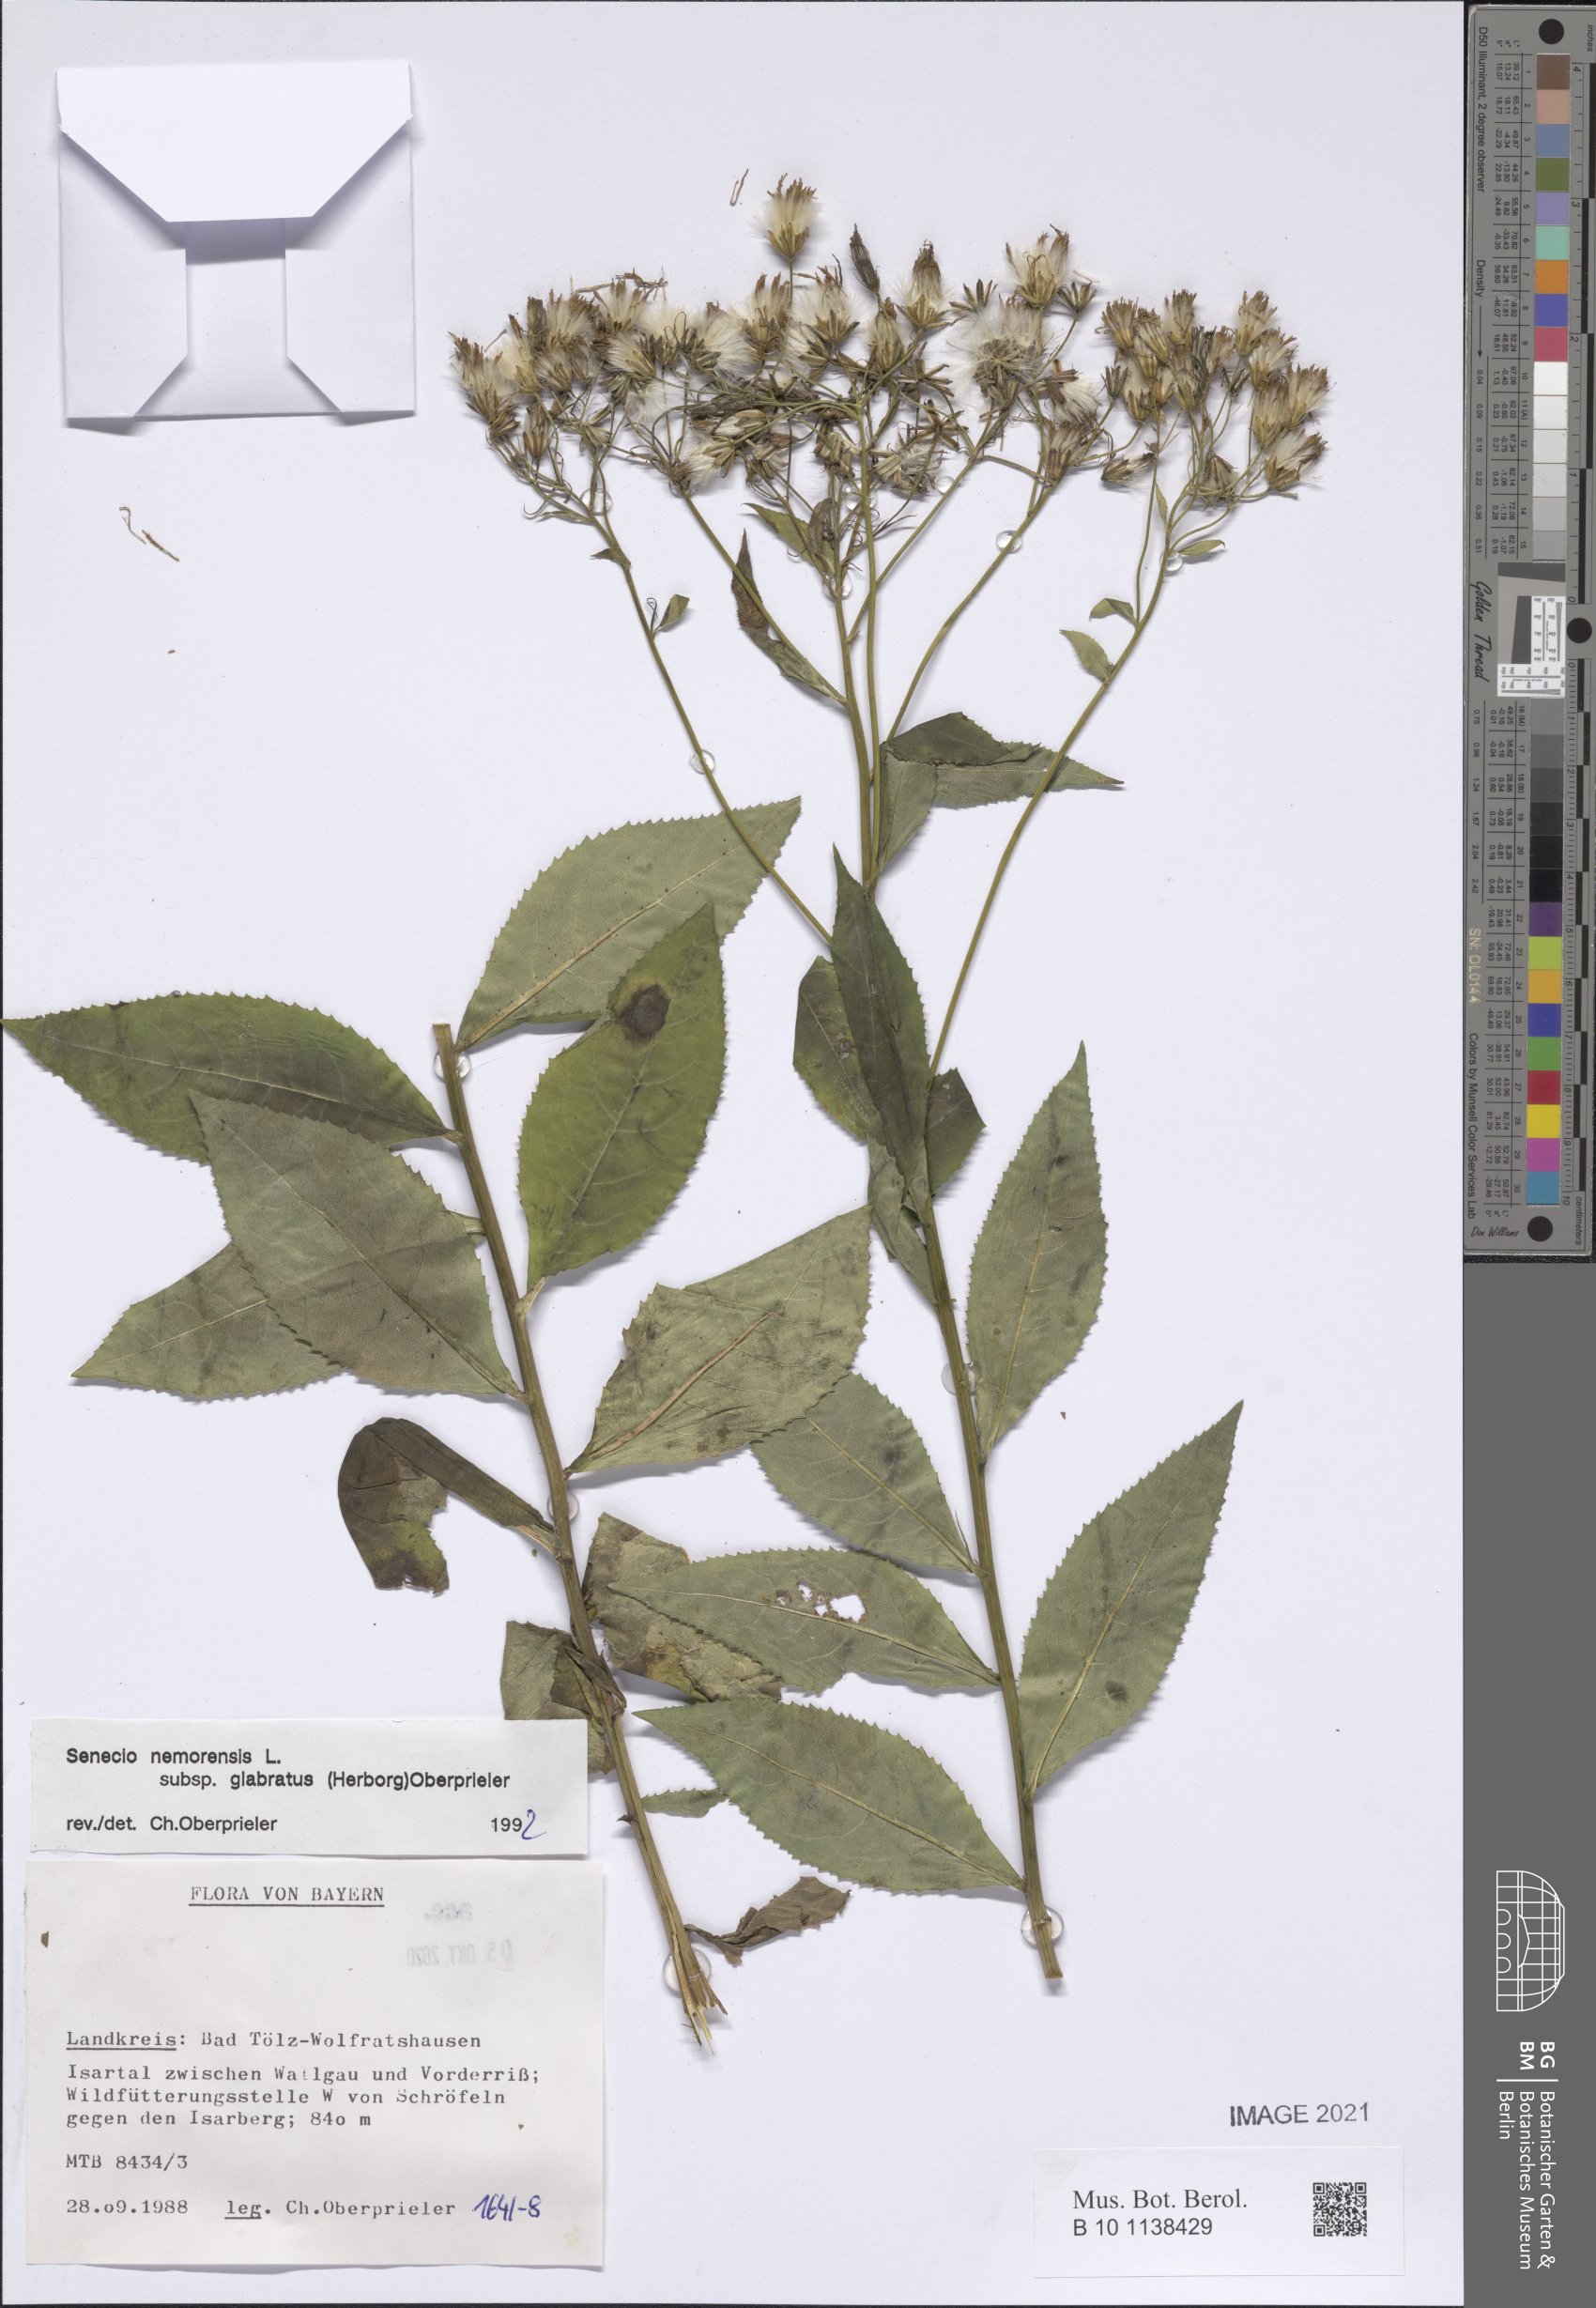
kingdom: Plantae
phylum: Tracheophyta
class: Magnoliopsida
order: Asterales
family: Asteraceae
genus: Senecio
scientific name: Senecio germanicus
